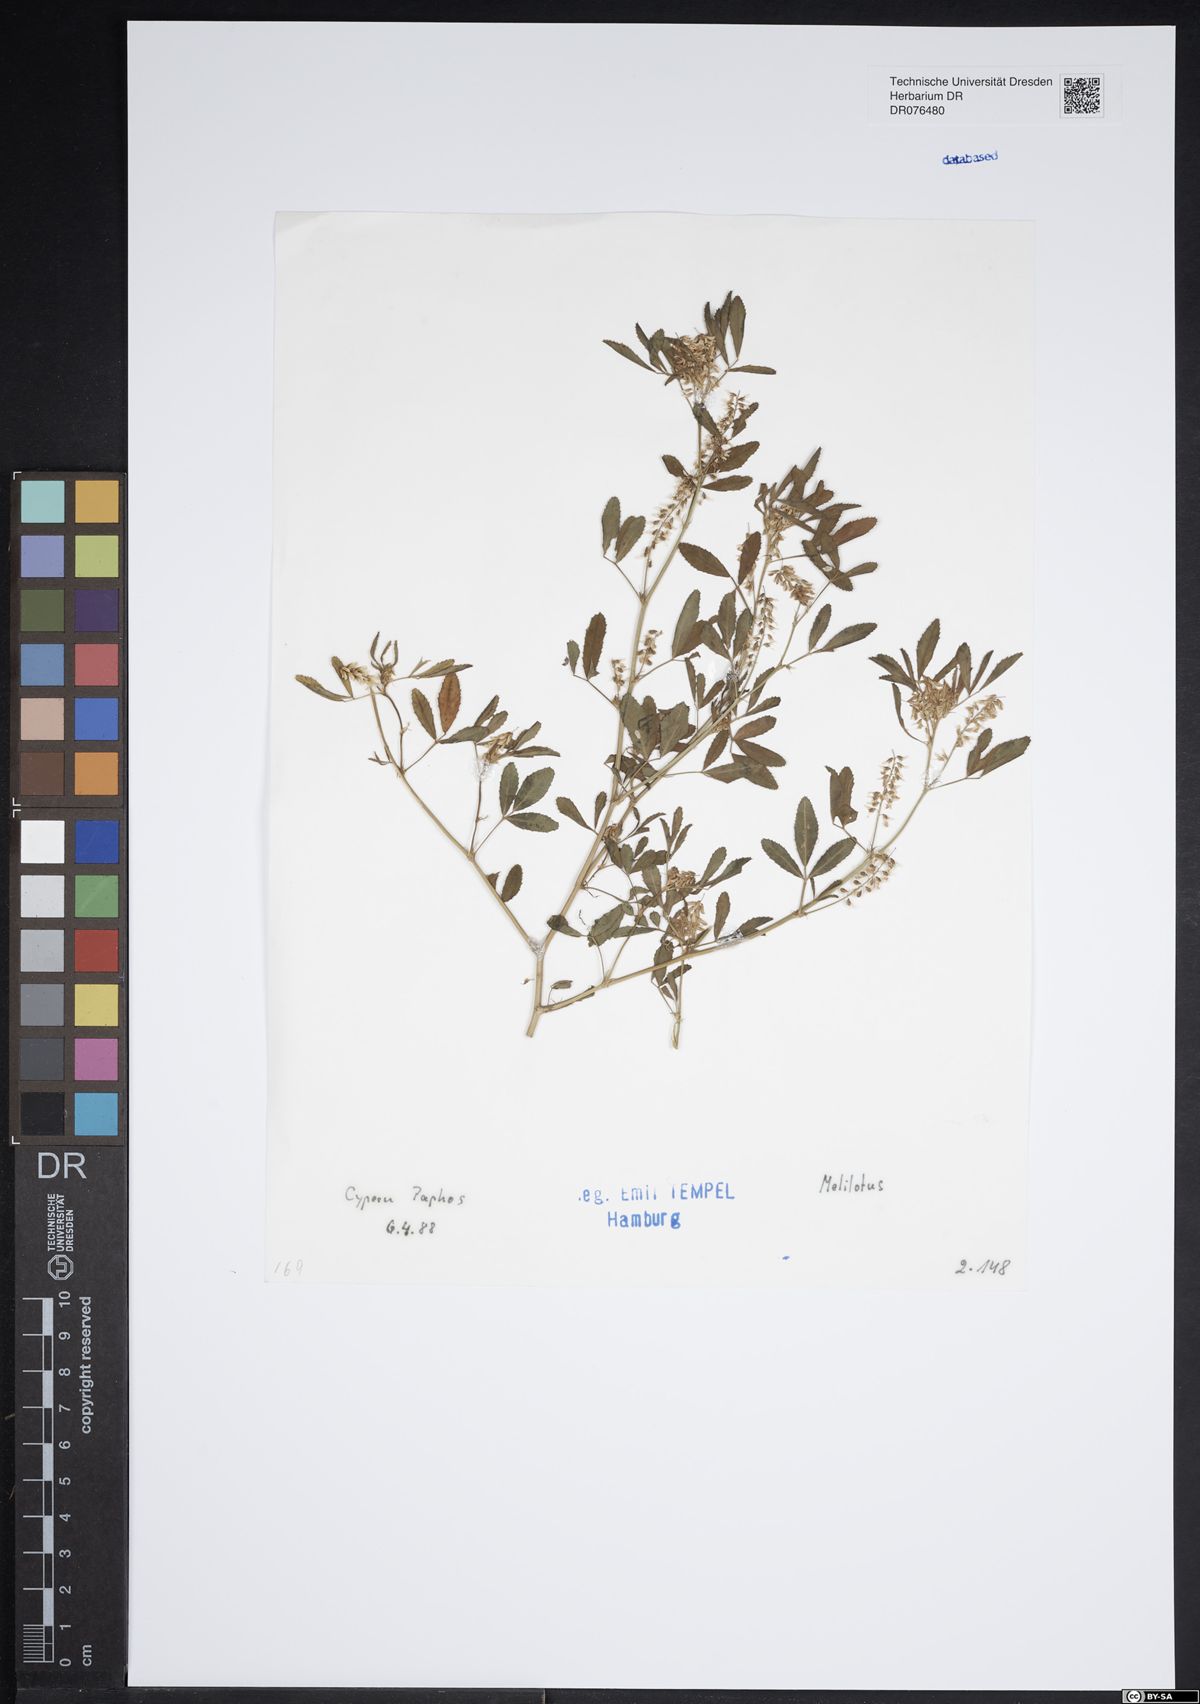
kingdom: Plantae
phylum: Tracheophyta
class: Magnoliopsida
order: Fabales
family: Fabaceae
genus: Melilotus
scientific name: Melilotus
